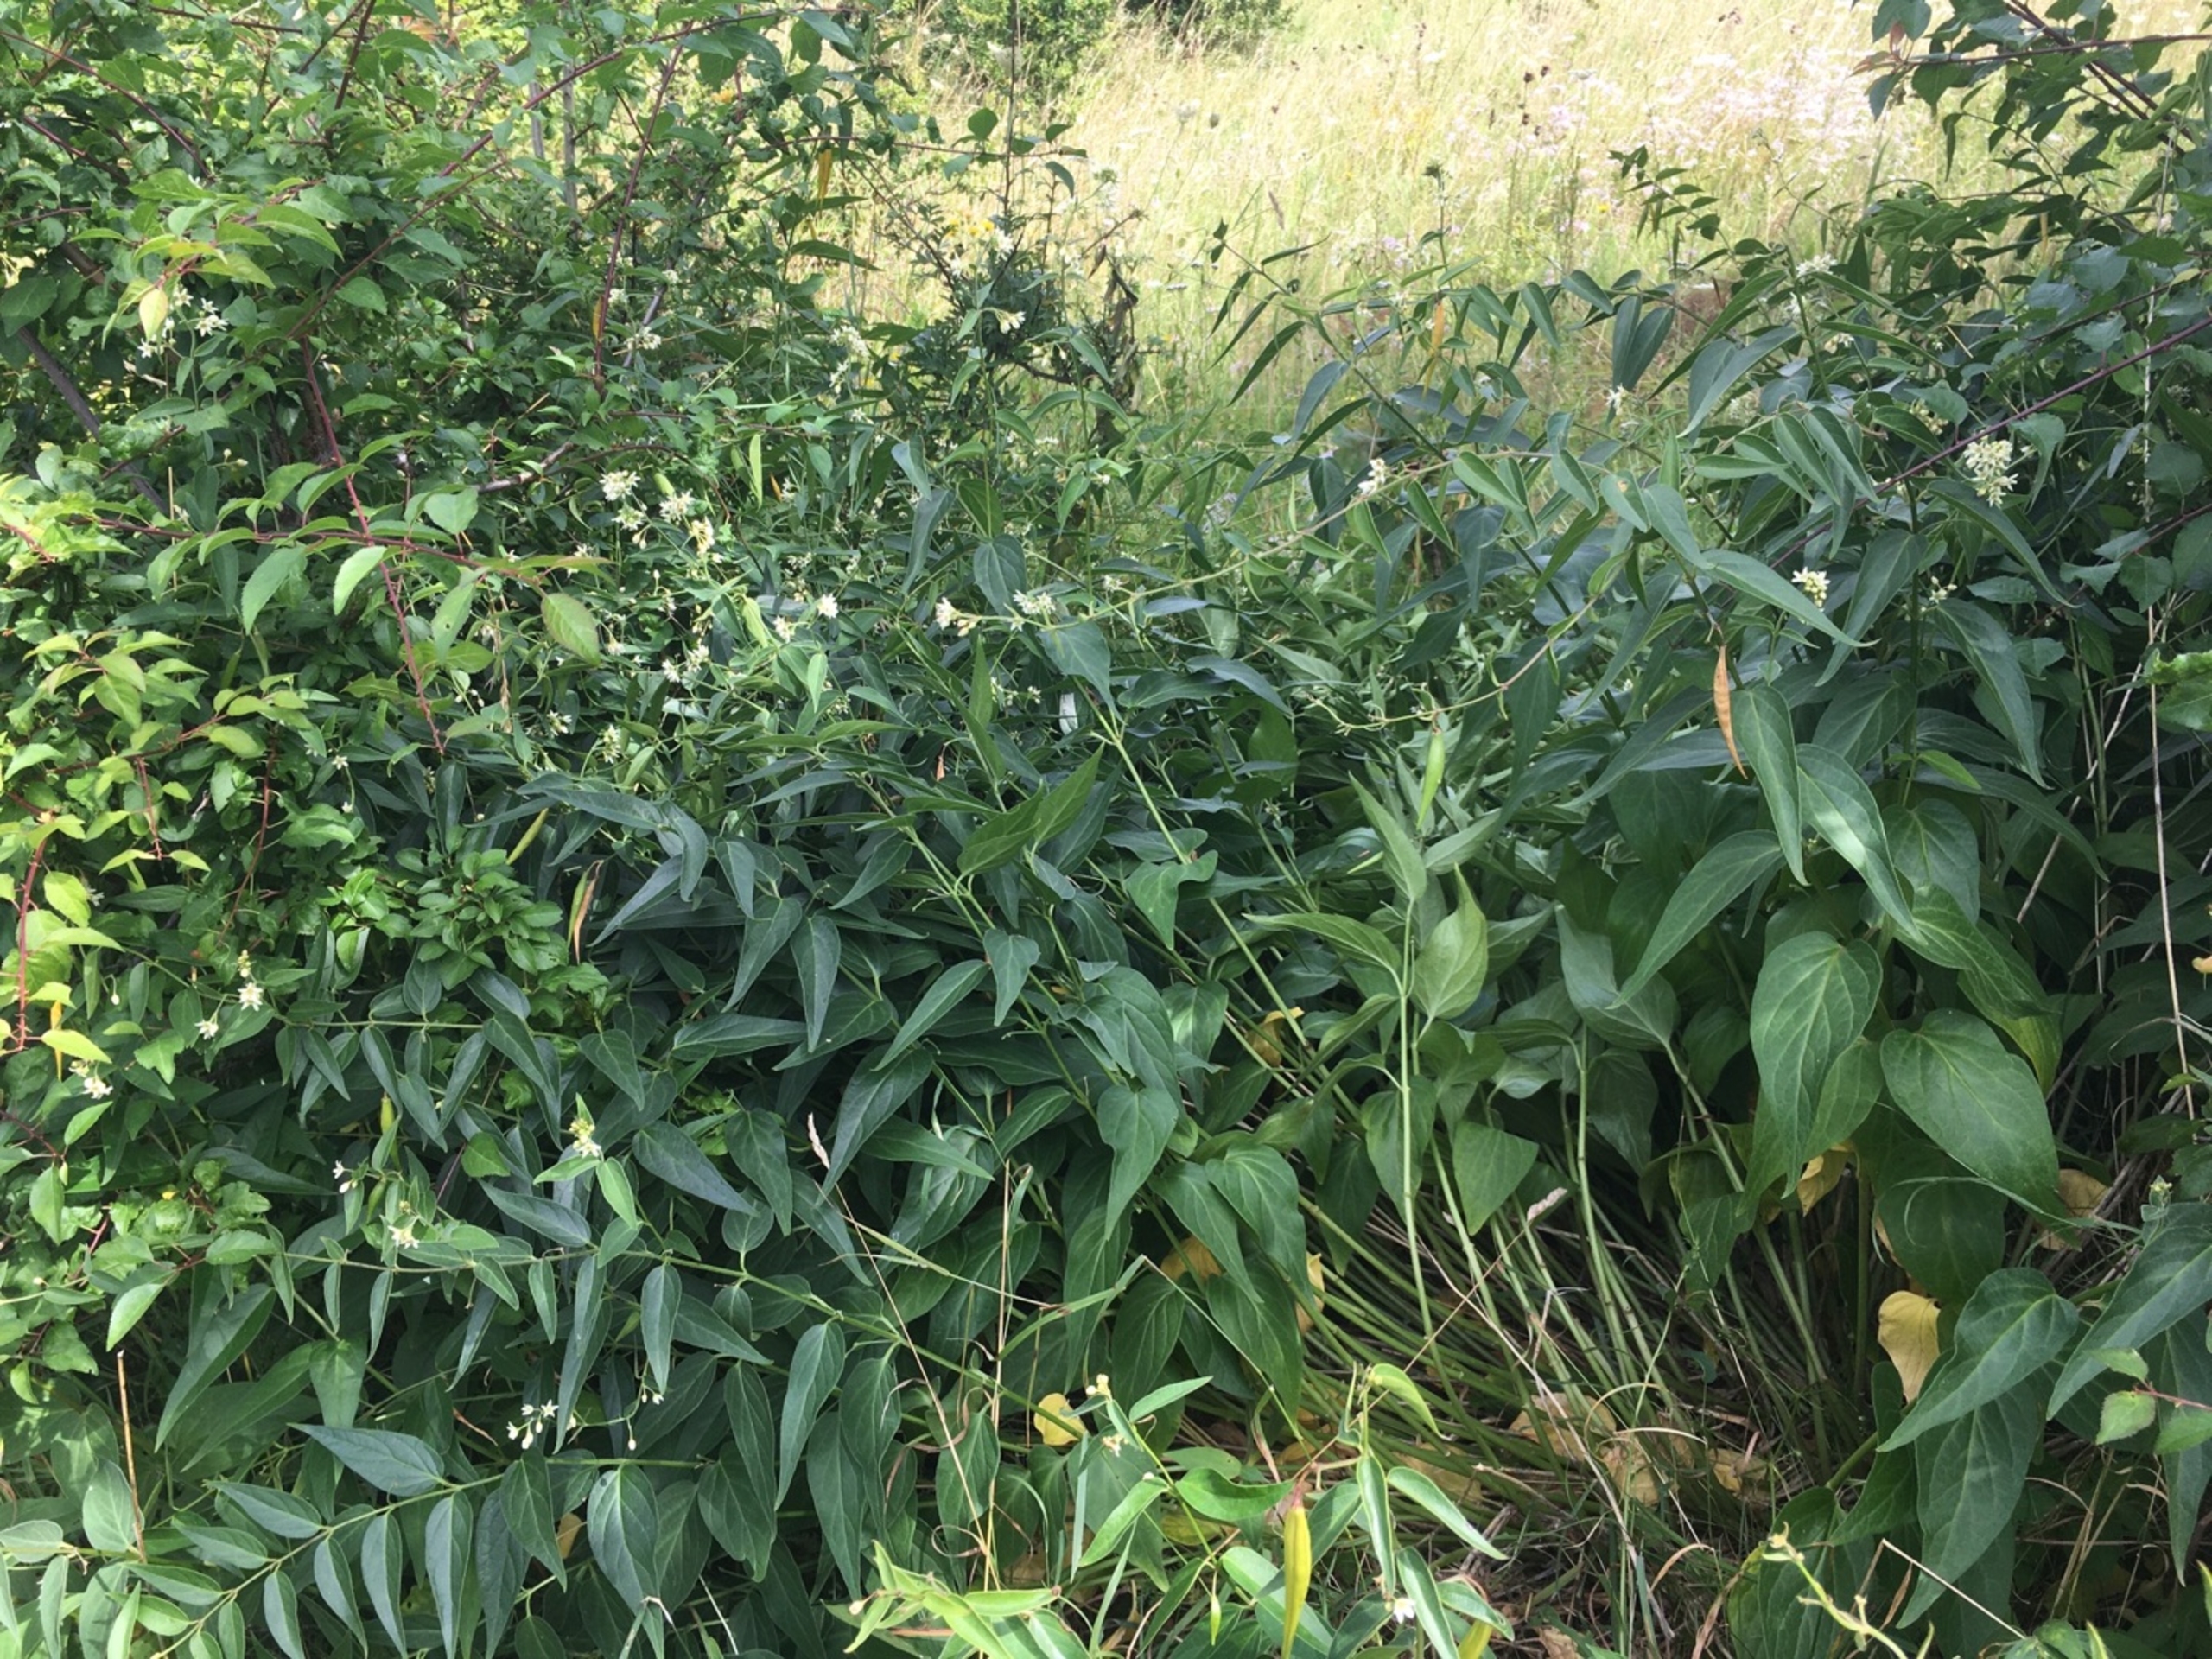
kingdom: Plantae
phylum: Tracheophyta
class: Magnoliopsida
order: Gentianales
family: Apocynaceae
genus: Vincetoxicum
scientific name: Vincetoxicum hirundinaria
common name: Svalerod
